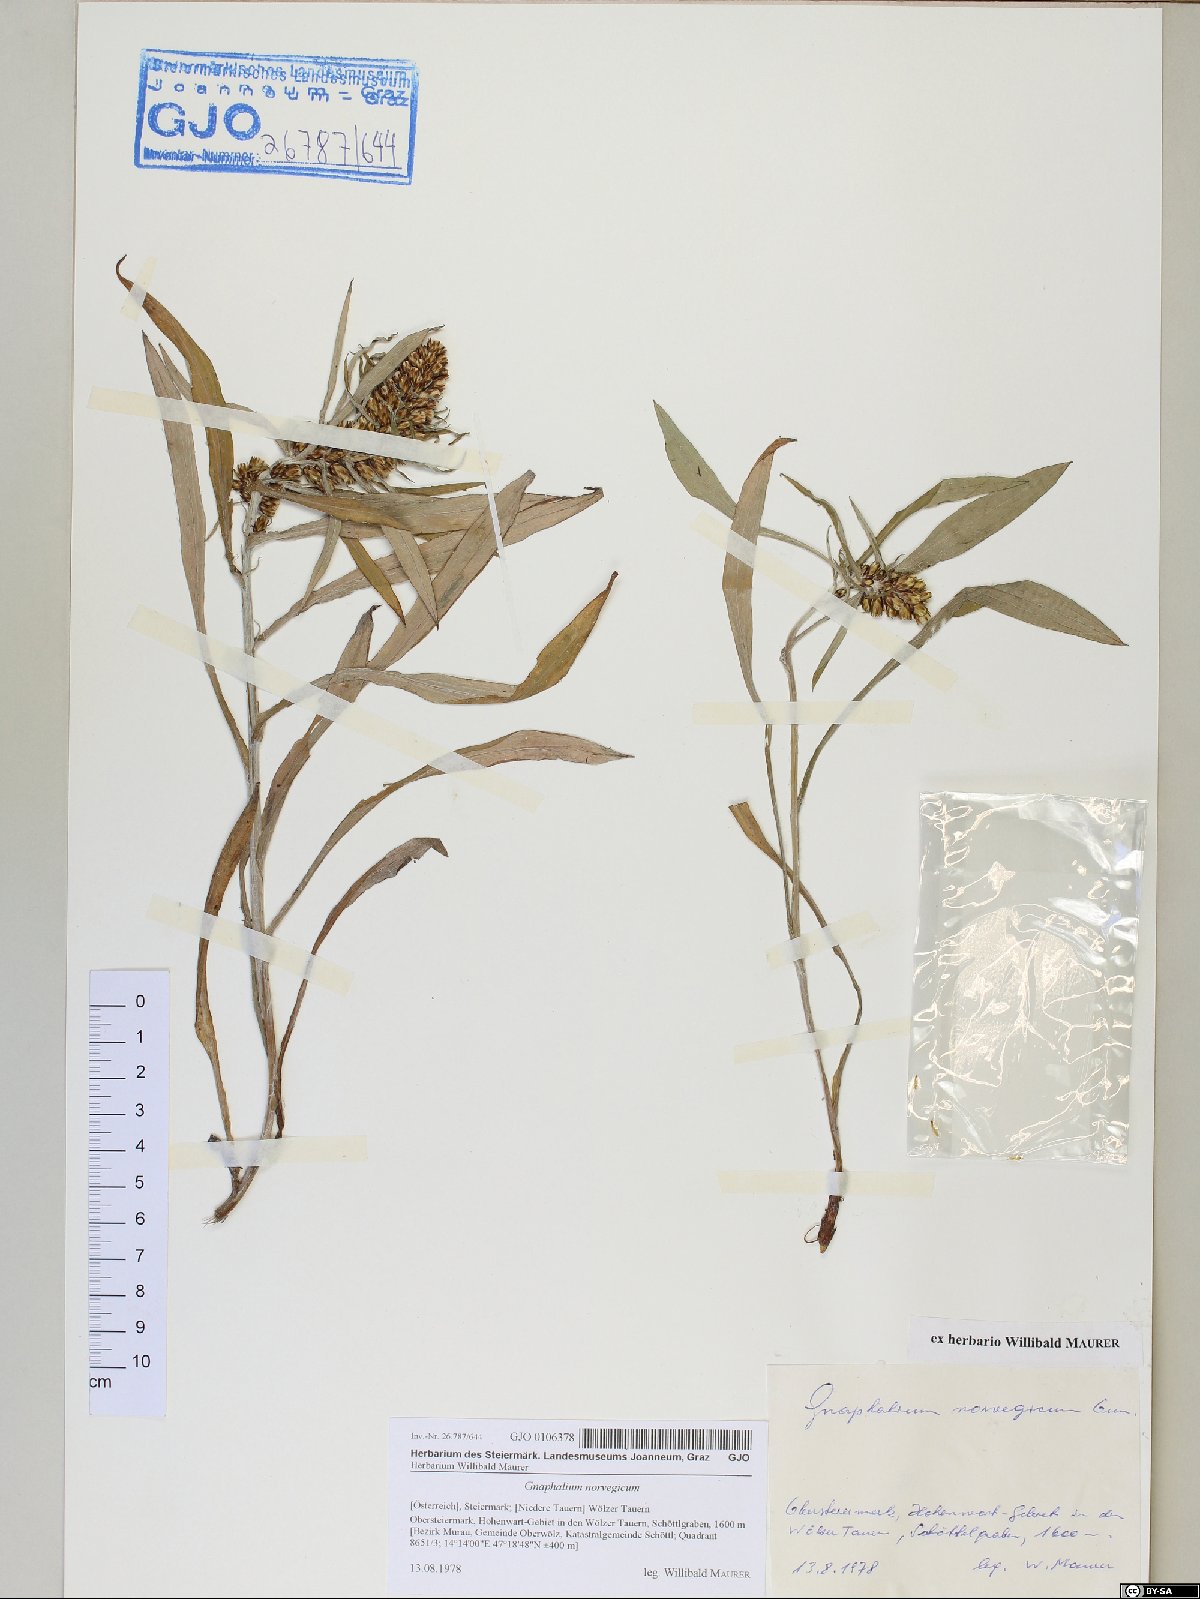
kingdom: Plantae
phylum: Tracheophyta
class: Magnoliopsida
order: Asterales
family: Asteraceae
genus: Omalotheca
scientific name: Omalotheca norvegica
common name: Norwegian arctic-cudweed
